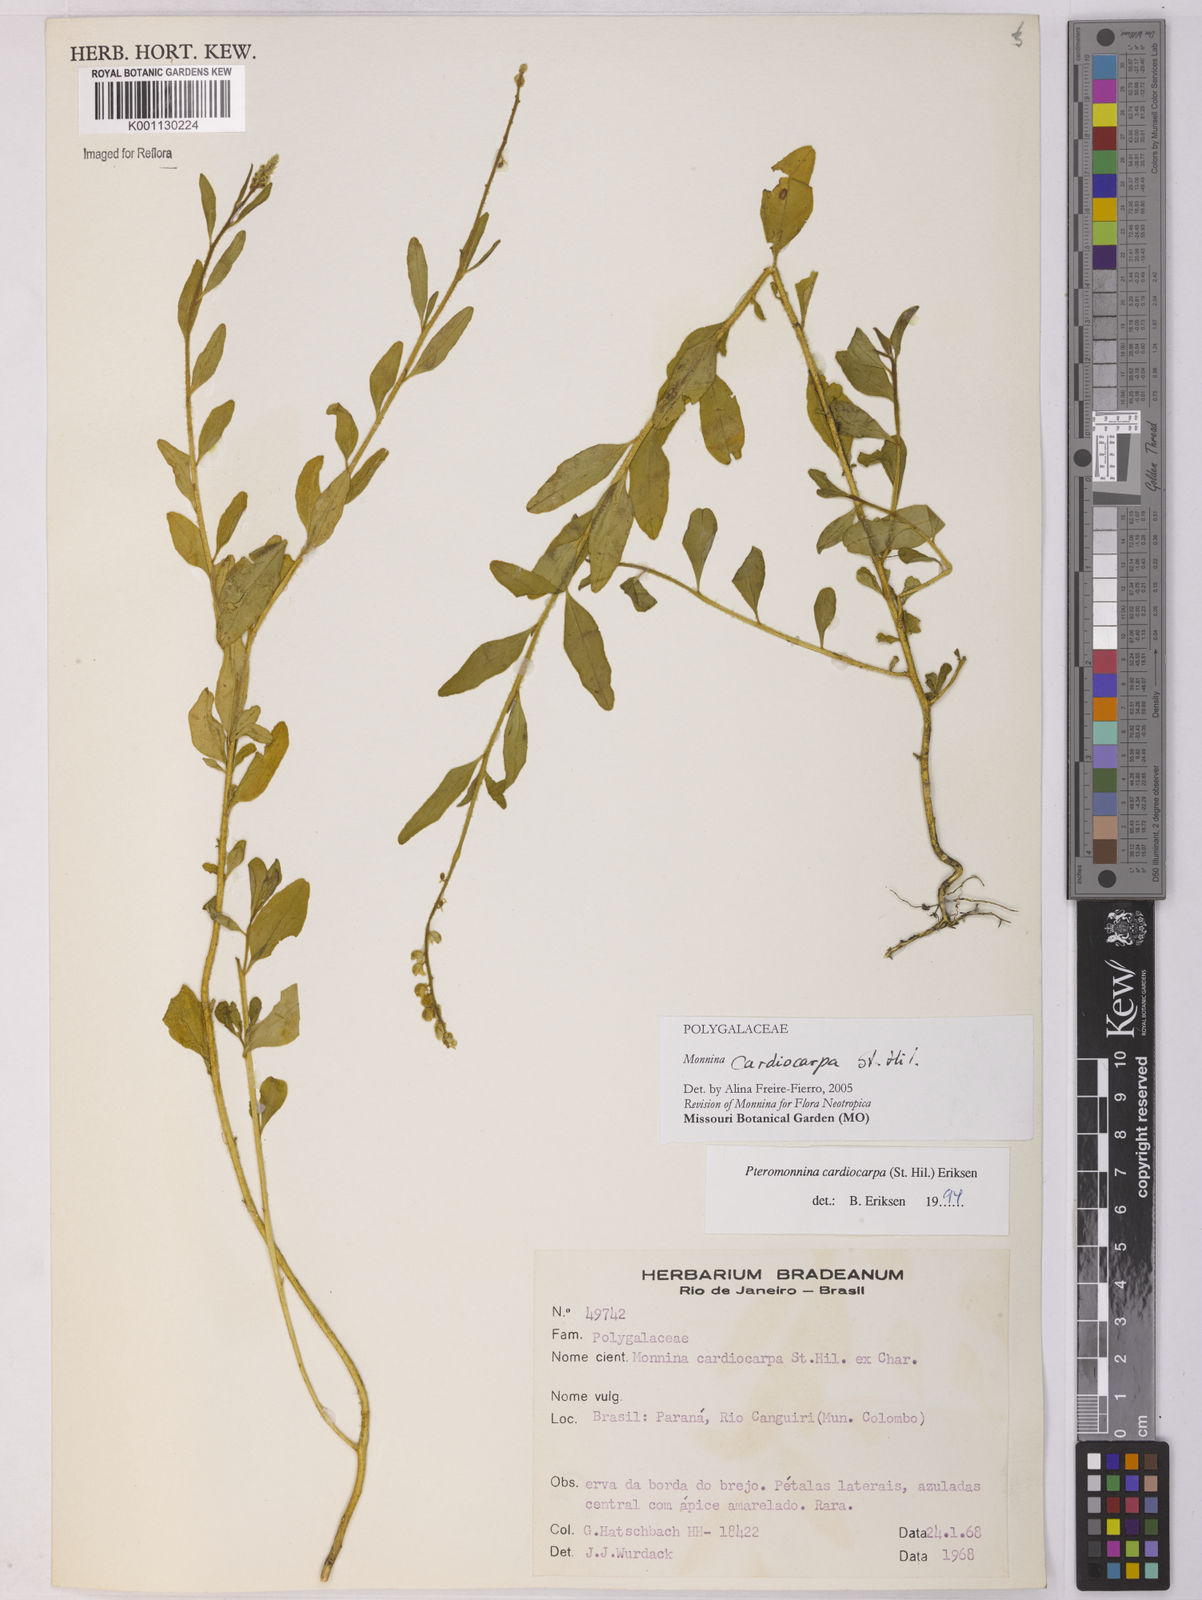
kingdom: Plantae
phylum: Tracheophyta
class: Magnoliopsida
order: Fabales
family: Polygalaceae
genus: Monnina
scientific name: Monnina cardiocarpa
